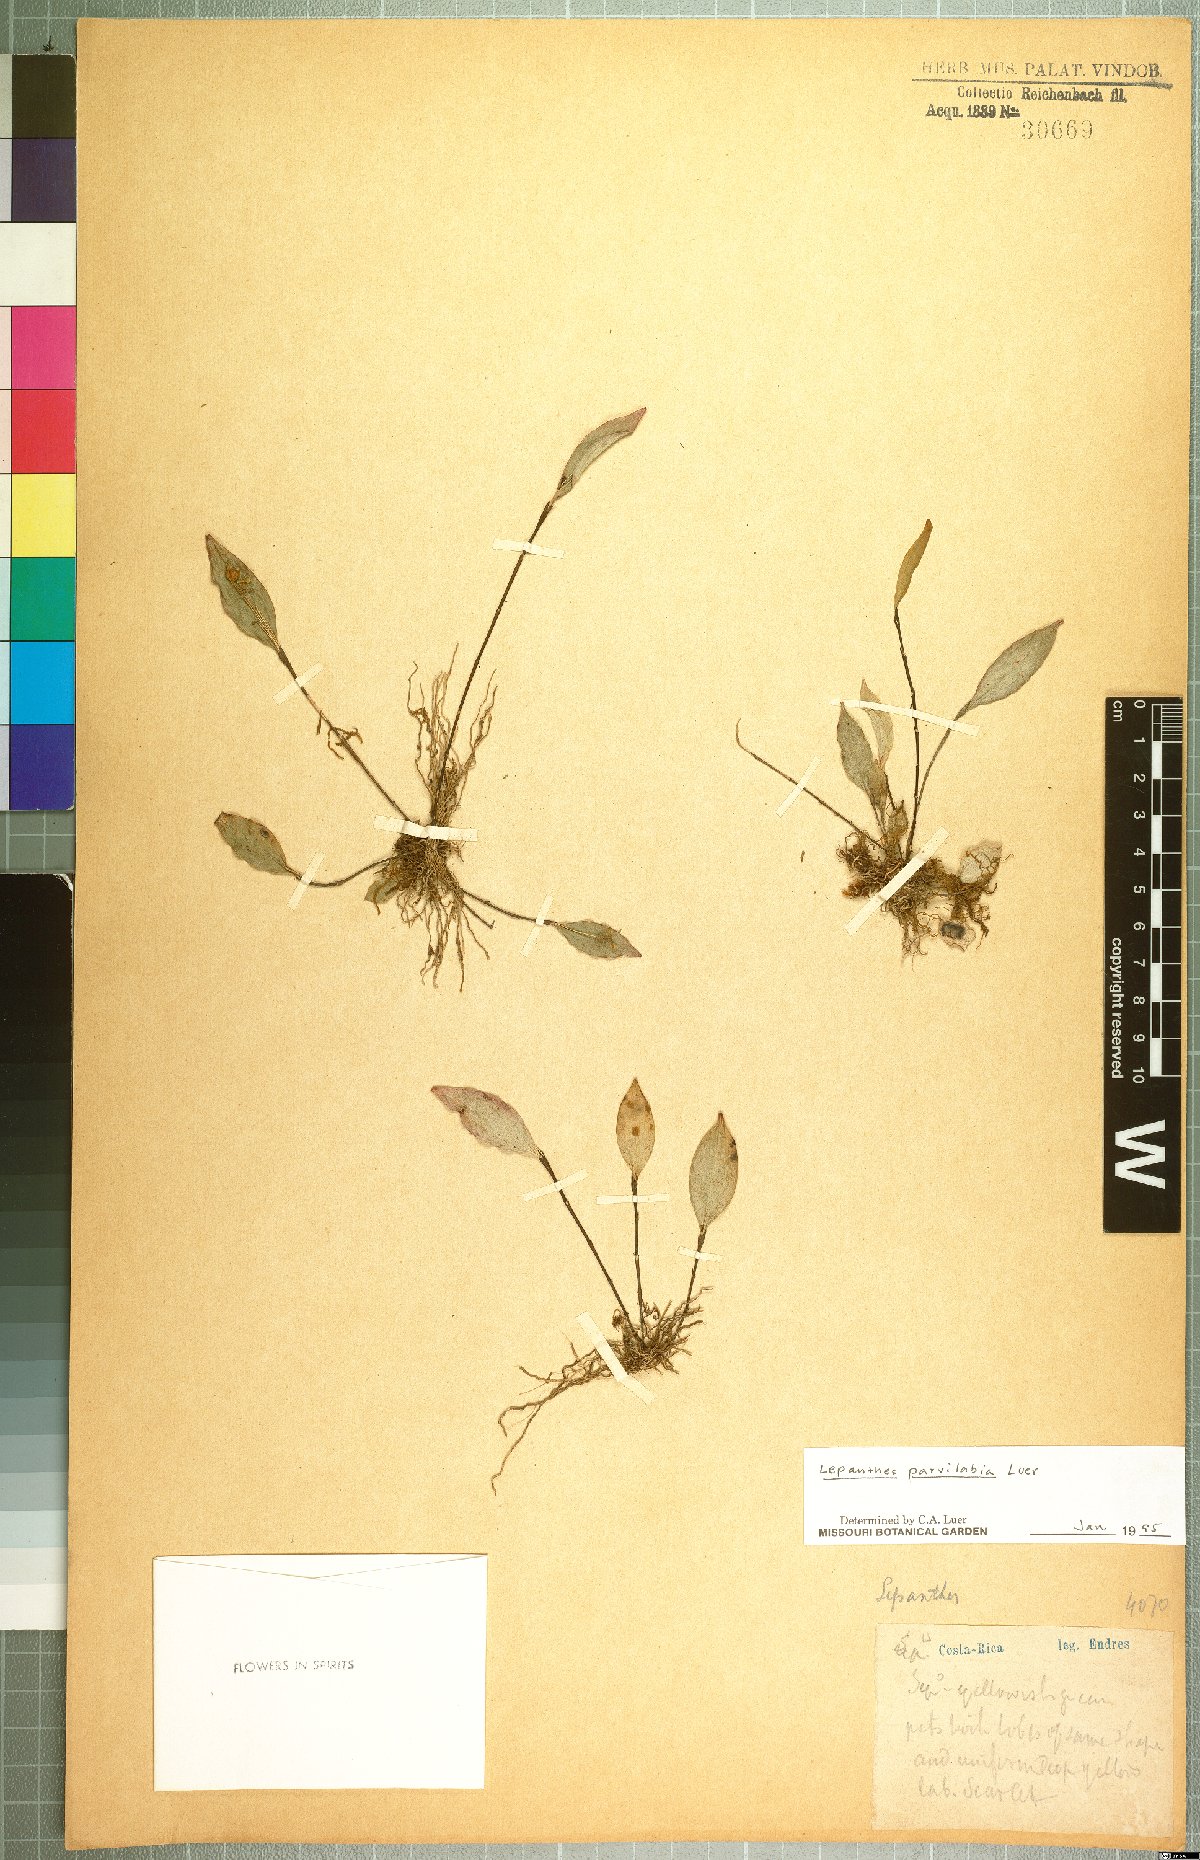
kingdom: Plantae
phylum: Tracheophyta
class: Liliopsida
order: Asparagales
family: Orchidaceae
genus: Lepanthes
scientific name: Lepanthes parvilabia
